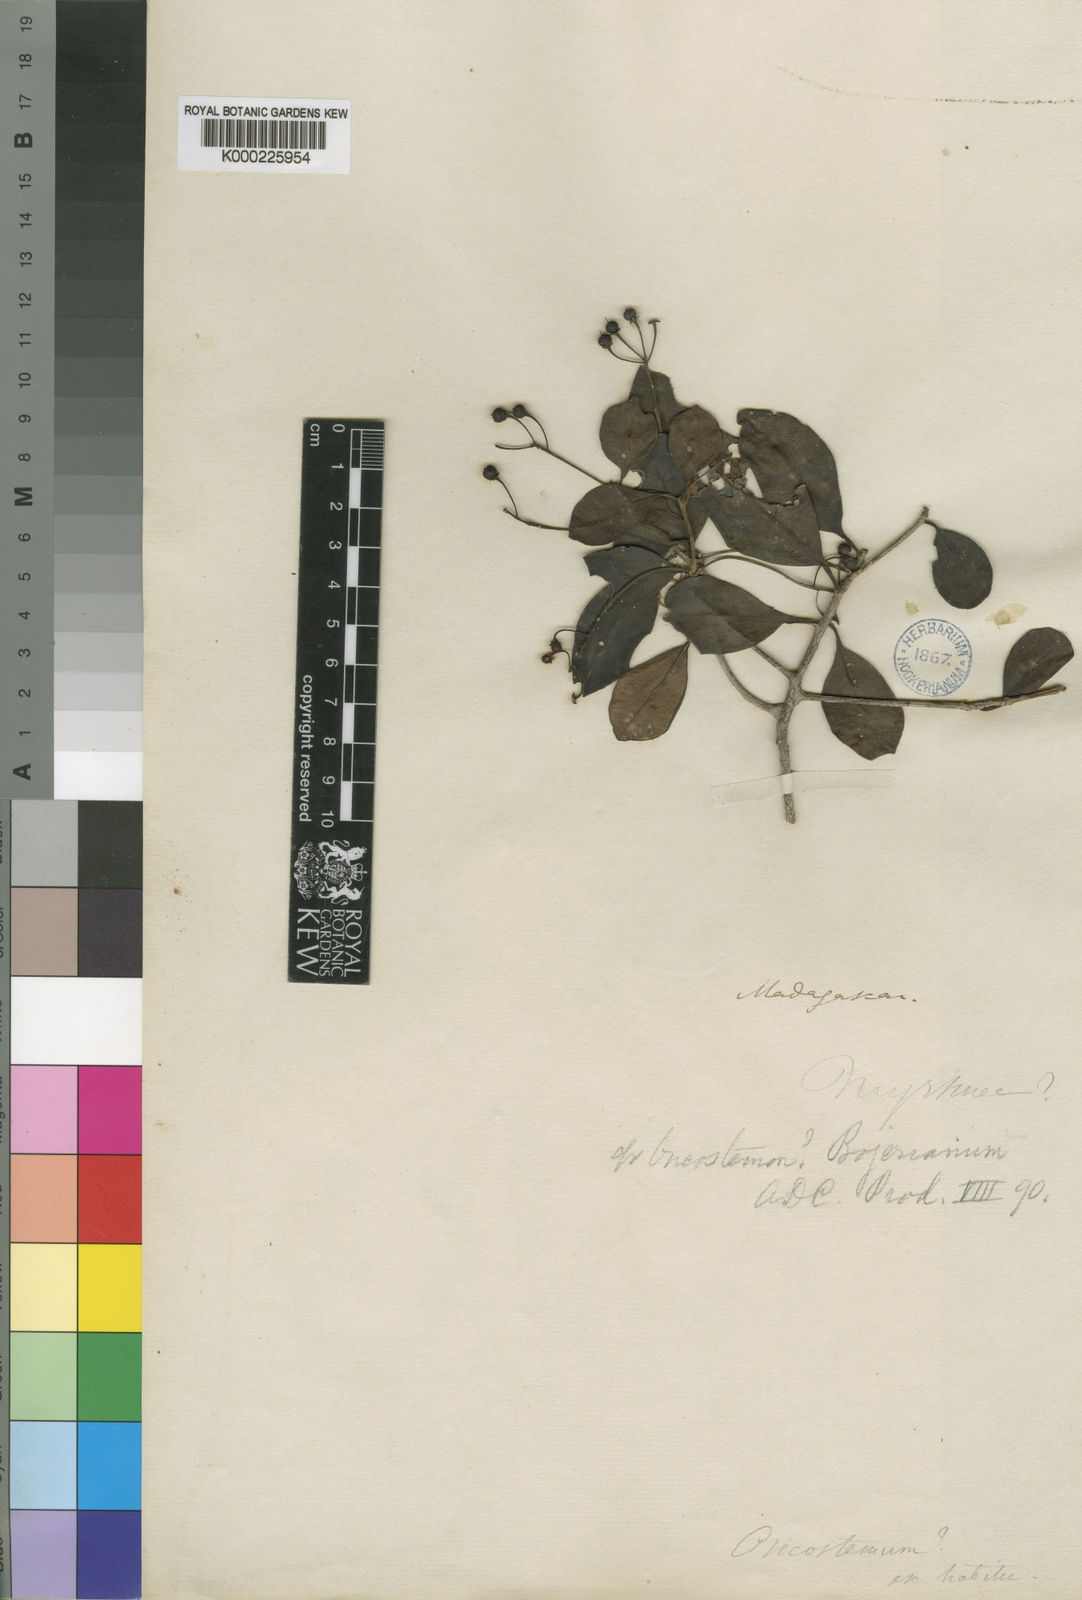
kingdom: Plantae
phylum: Tracheophyta
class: Magnoliopsida
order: Ericales
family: Primulaceae
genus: Oncostemum
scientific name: Oncostemum
